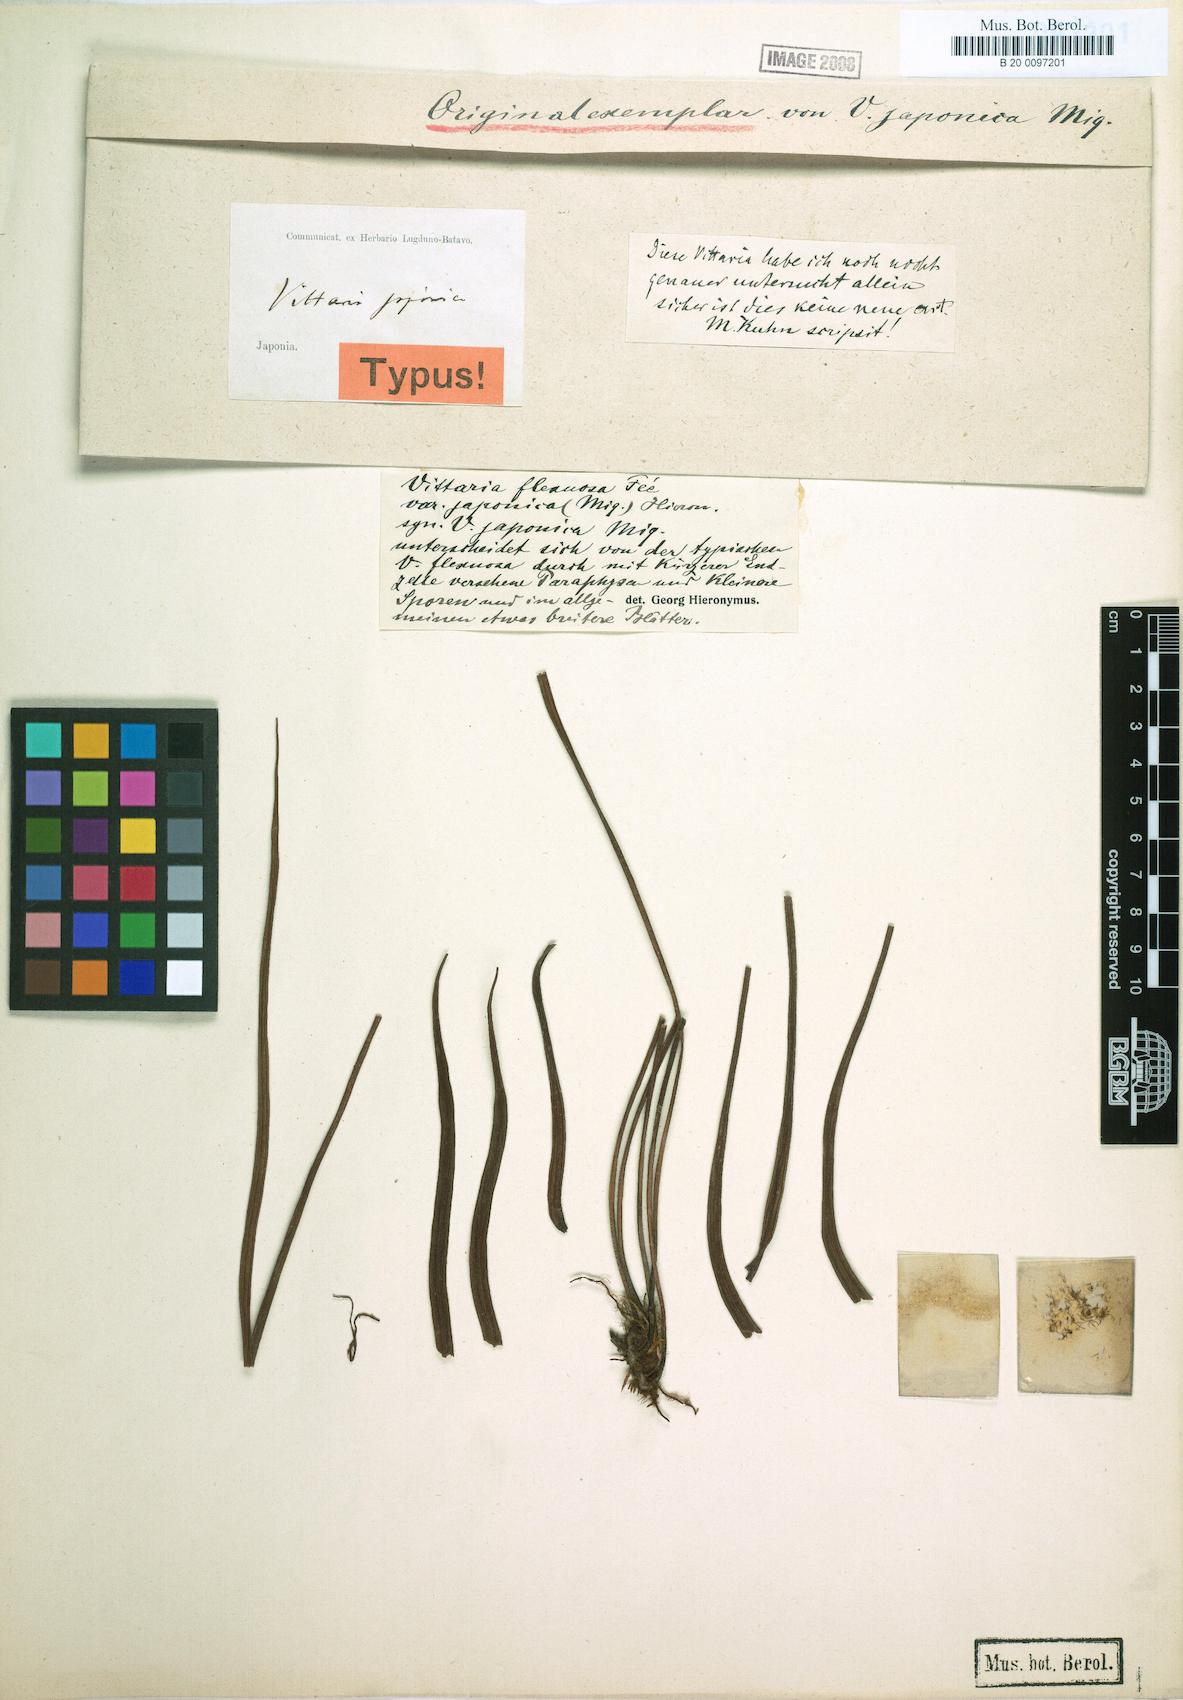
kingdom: Plantae
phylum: Tracheophyta
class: Polypodiopsida
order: Polypodiales
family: Pteridaceae
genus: Haplopteris
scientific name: Haplopteris flexuosa
